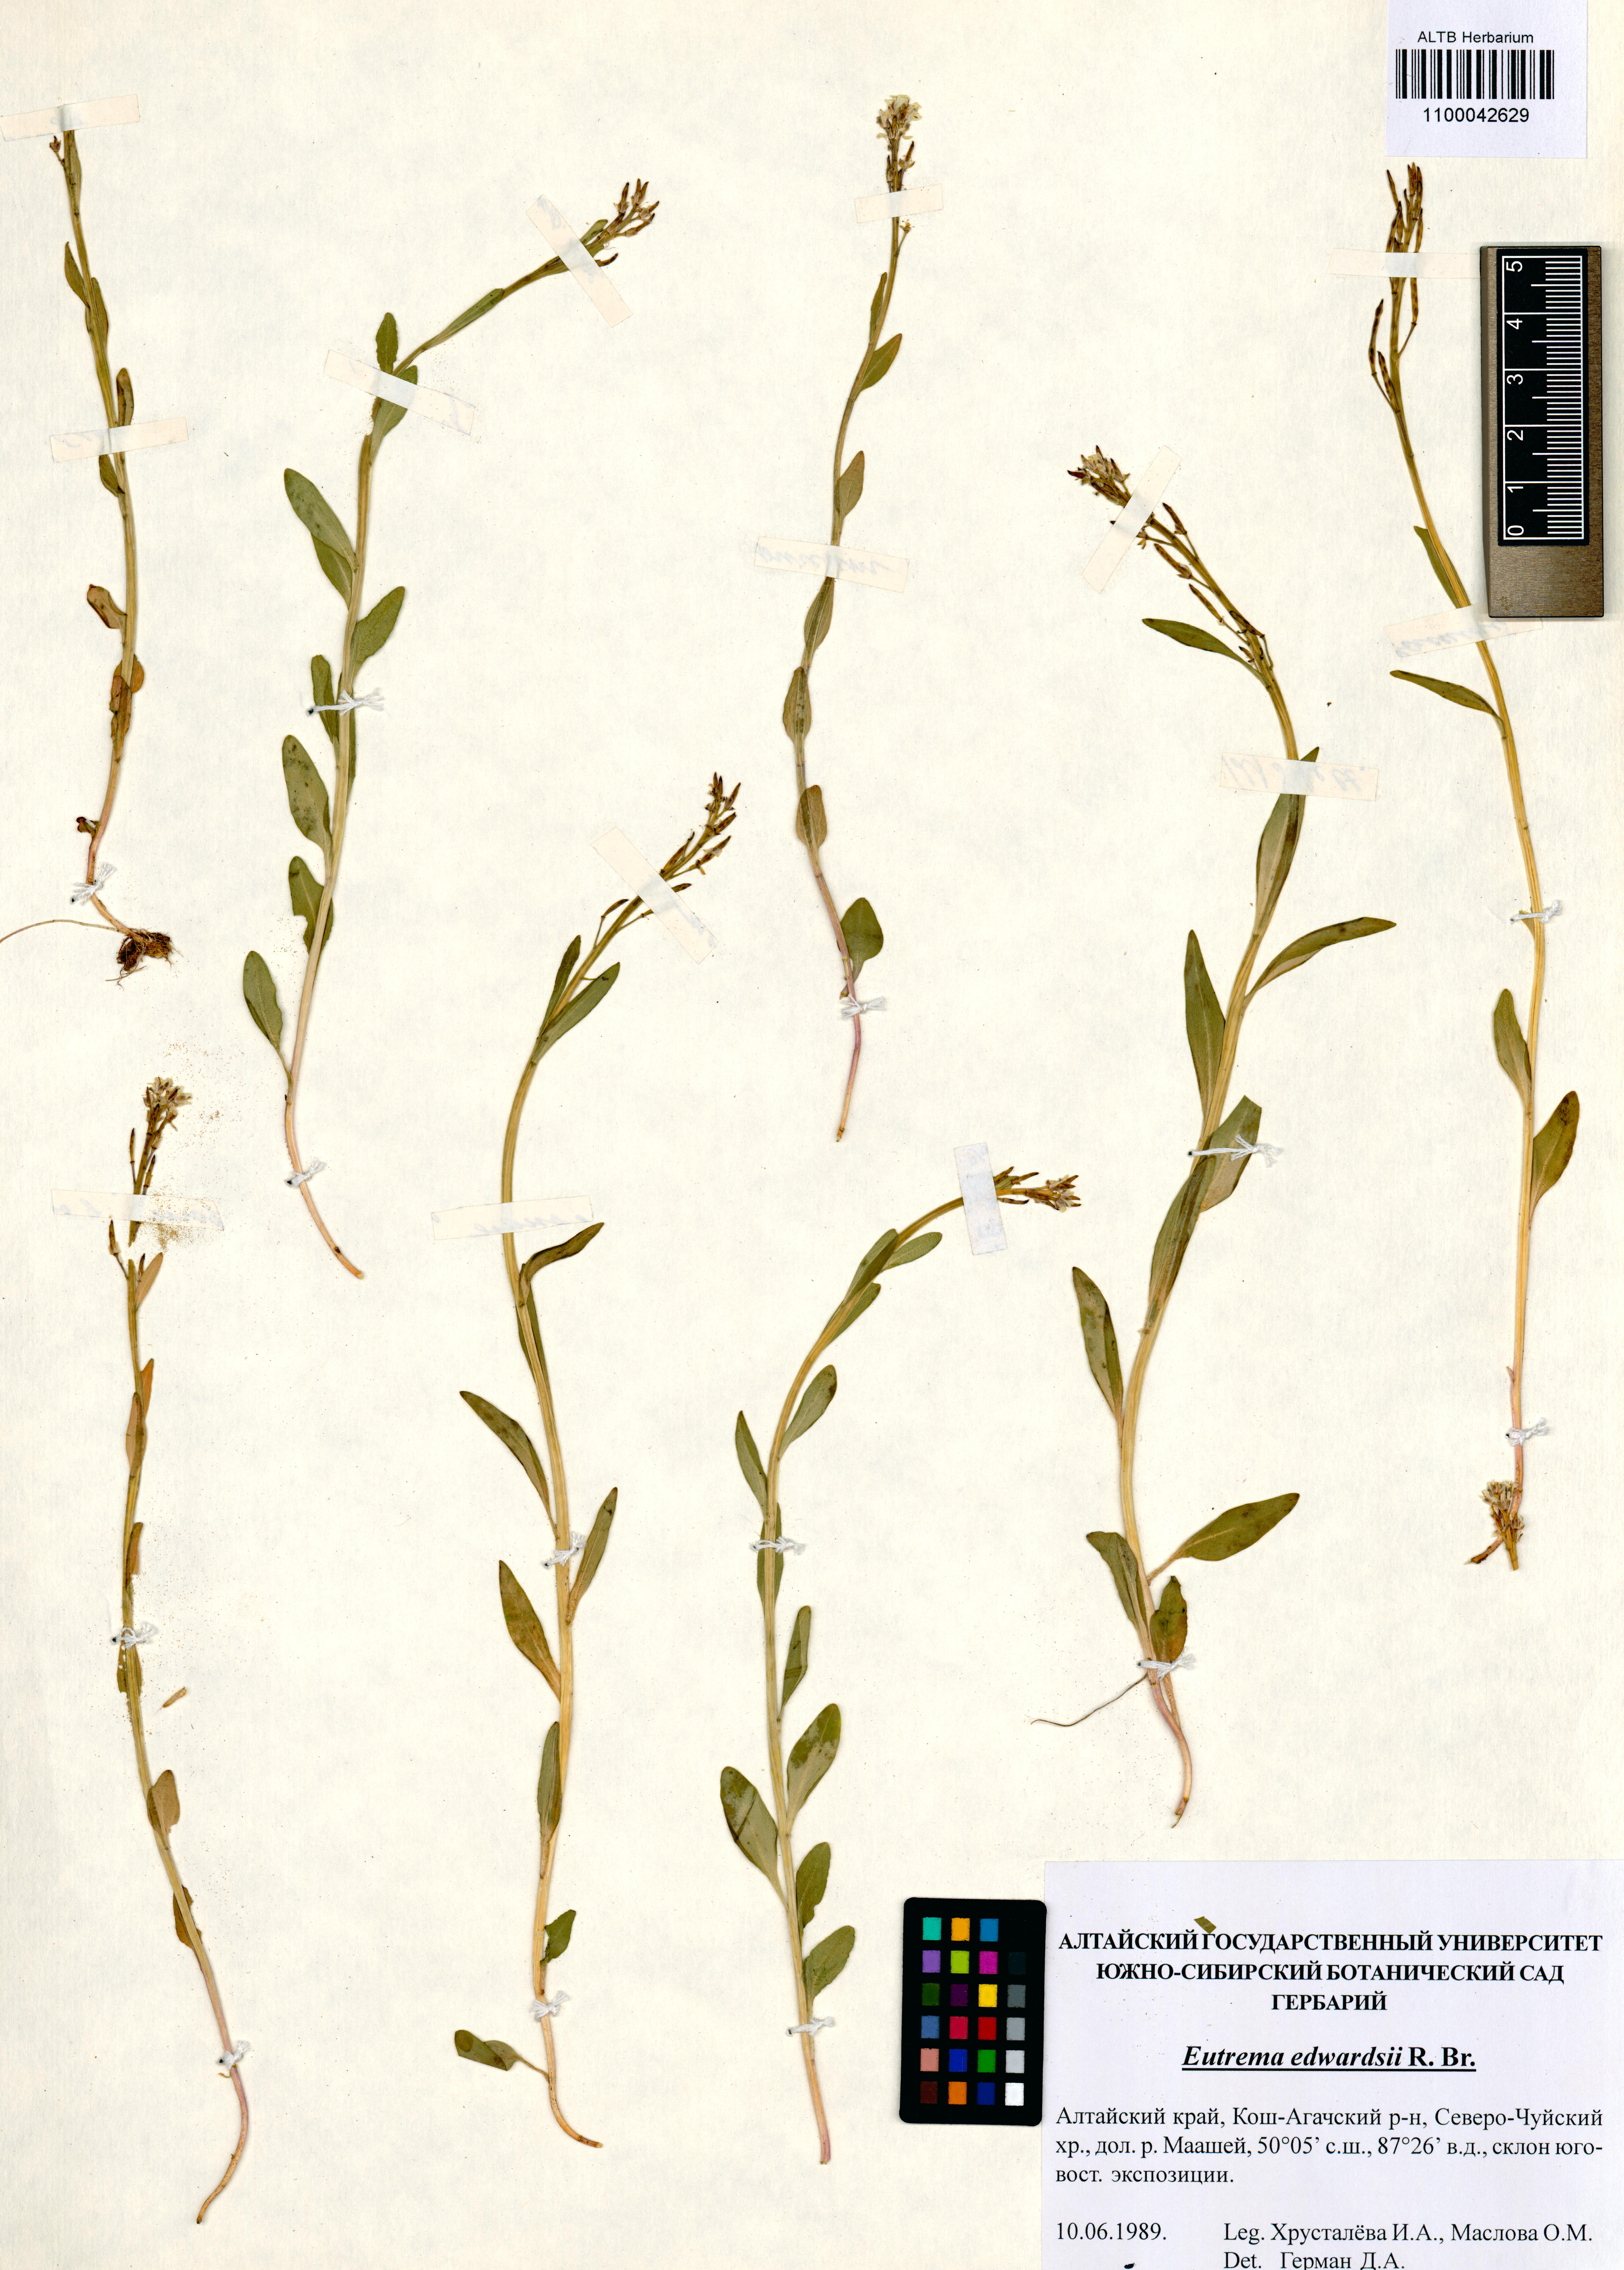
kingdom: Plantae
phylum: Tracheophyta
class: Magnoliopsida
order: Brassicales
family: Brassicaceae
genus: Eutrema
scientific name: Eutrema edwardsii
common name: Penland alpine fen mustard
